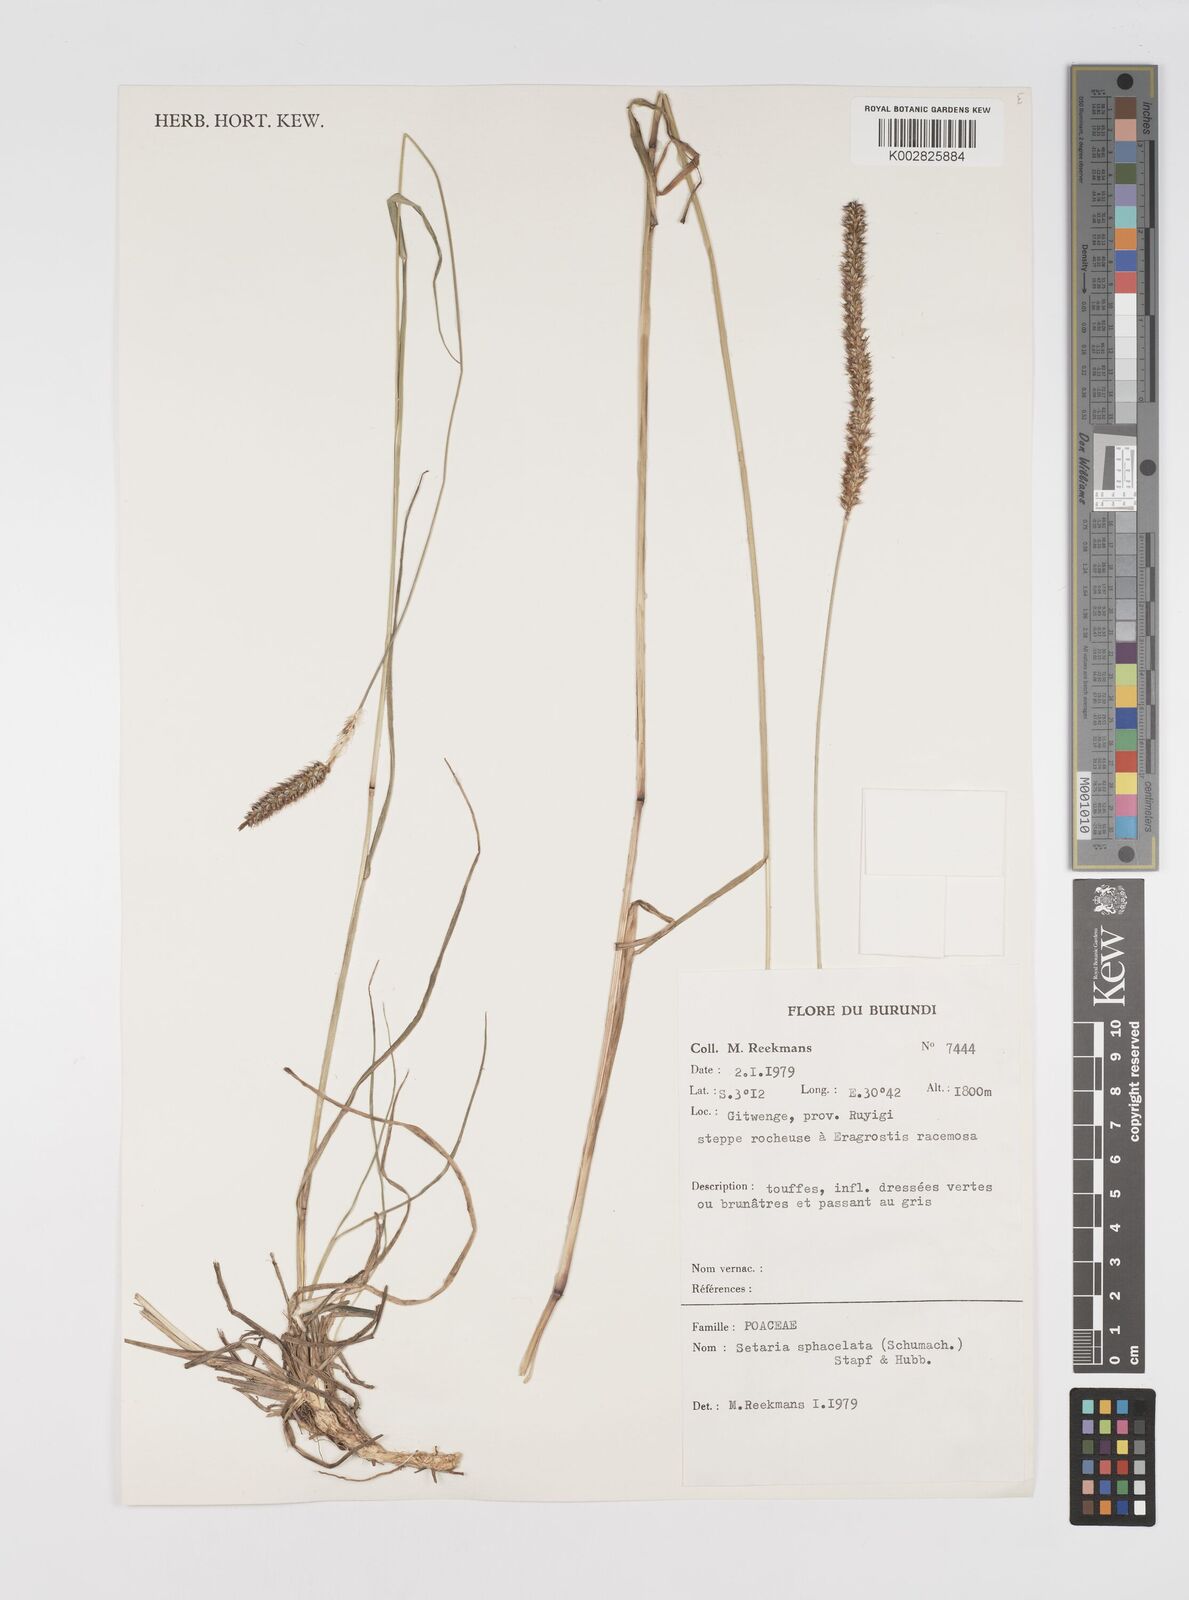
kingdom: Plantae
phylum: Tracheophyta
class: Liliopsida
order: Poales
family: Poaceae
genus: Setaria
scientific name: Setaria sphacelata
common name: African bristlegrass
